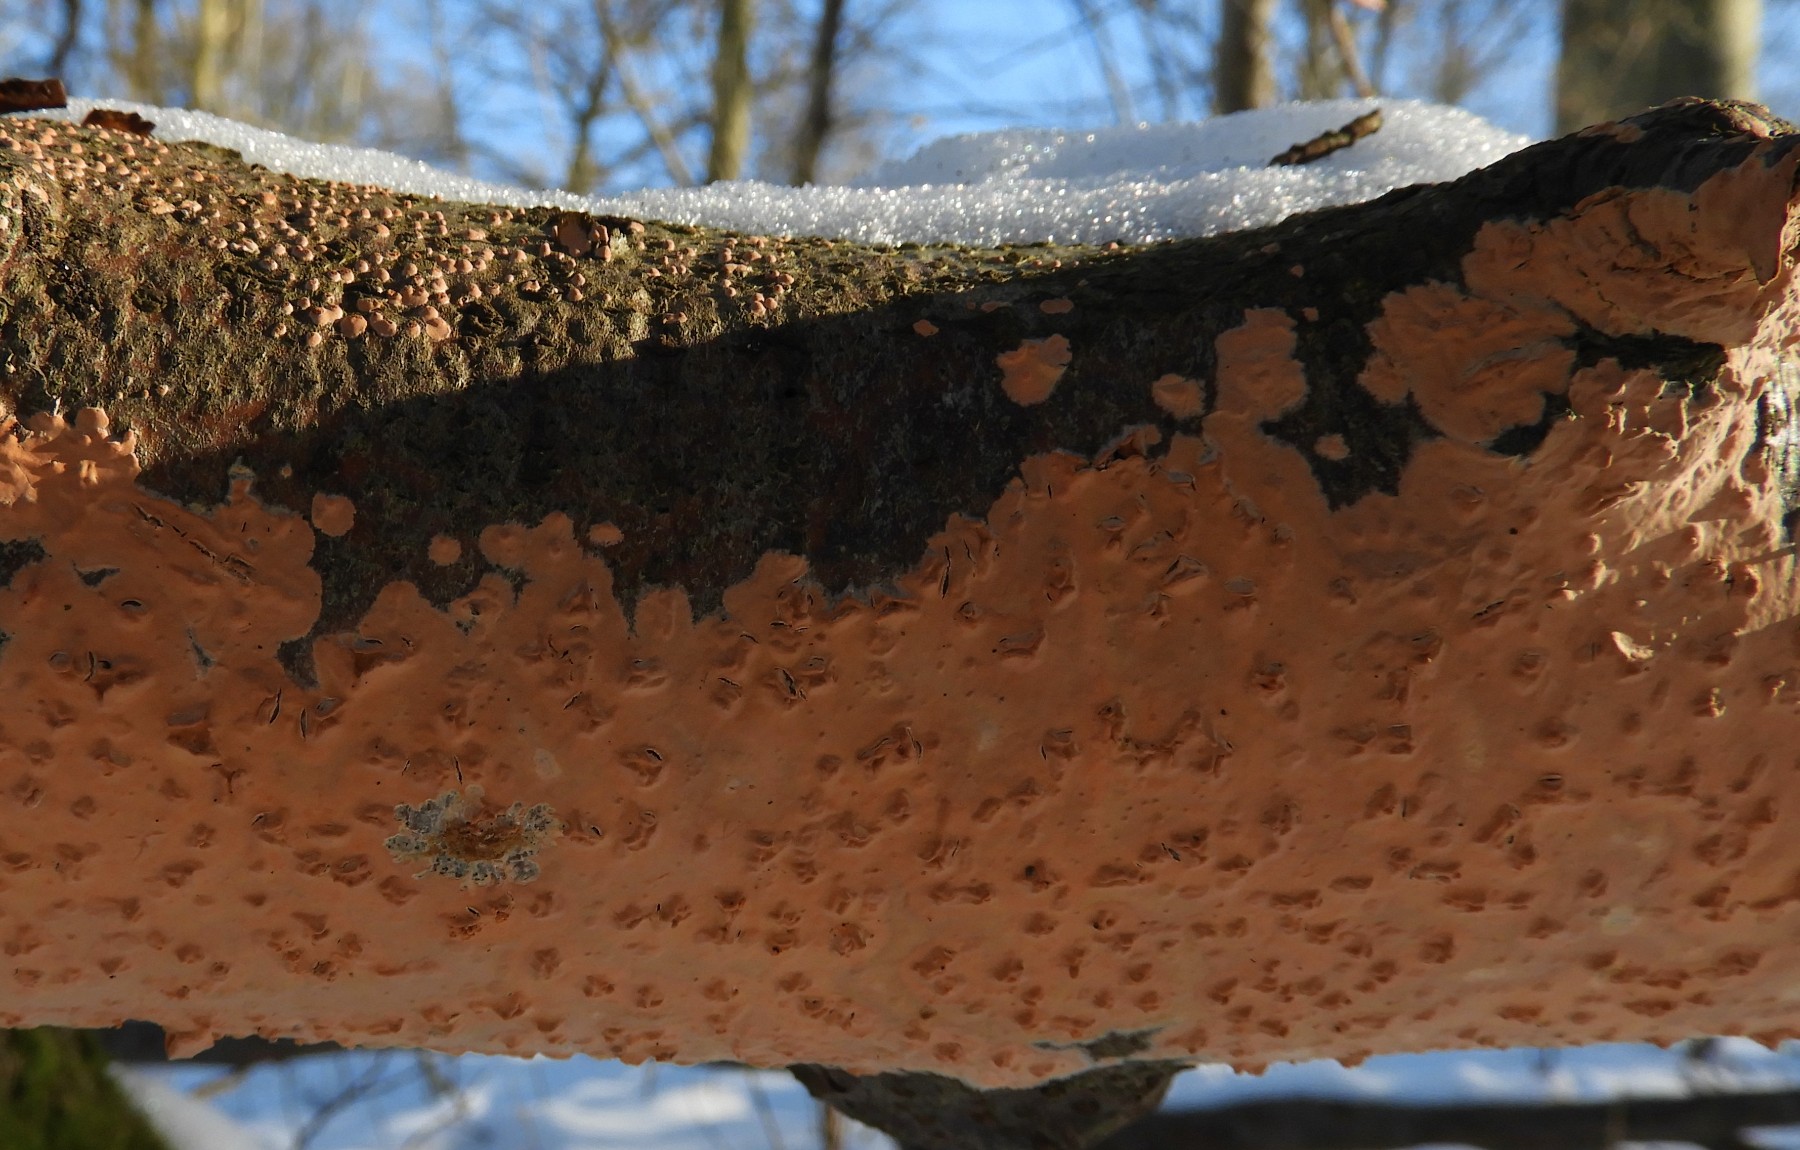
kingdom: Fungi
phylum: Basidiomycota
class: Agaricomycetes
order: Russulales
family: Peniophoraceae
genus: Peniophora
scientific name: Peniophora incarnata
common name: laksefarvet voksskind
